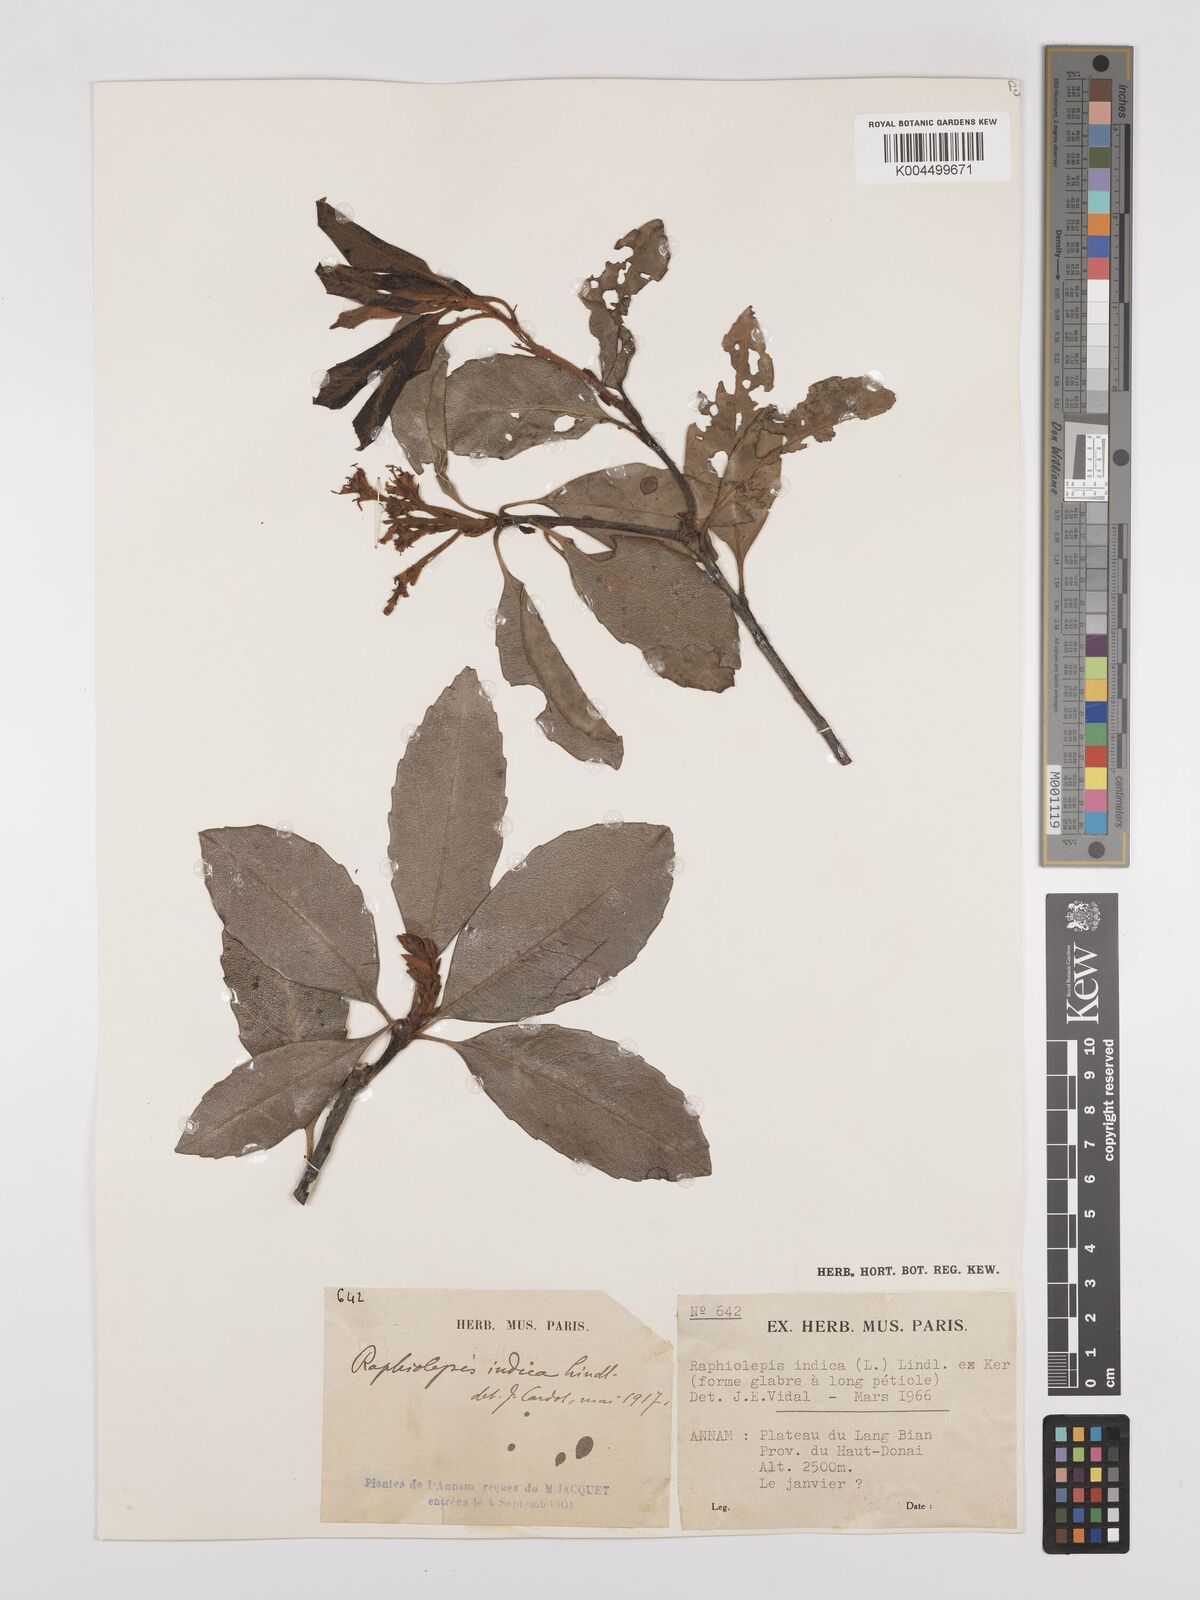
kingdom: Plantae
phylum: Tracheophyta
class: Magnoliopsida
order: Rosales
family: Rosaceae
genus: Rhaphiolepis
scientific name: Rhaphiolepis indica
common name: India-hawthorn
